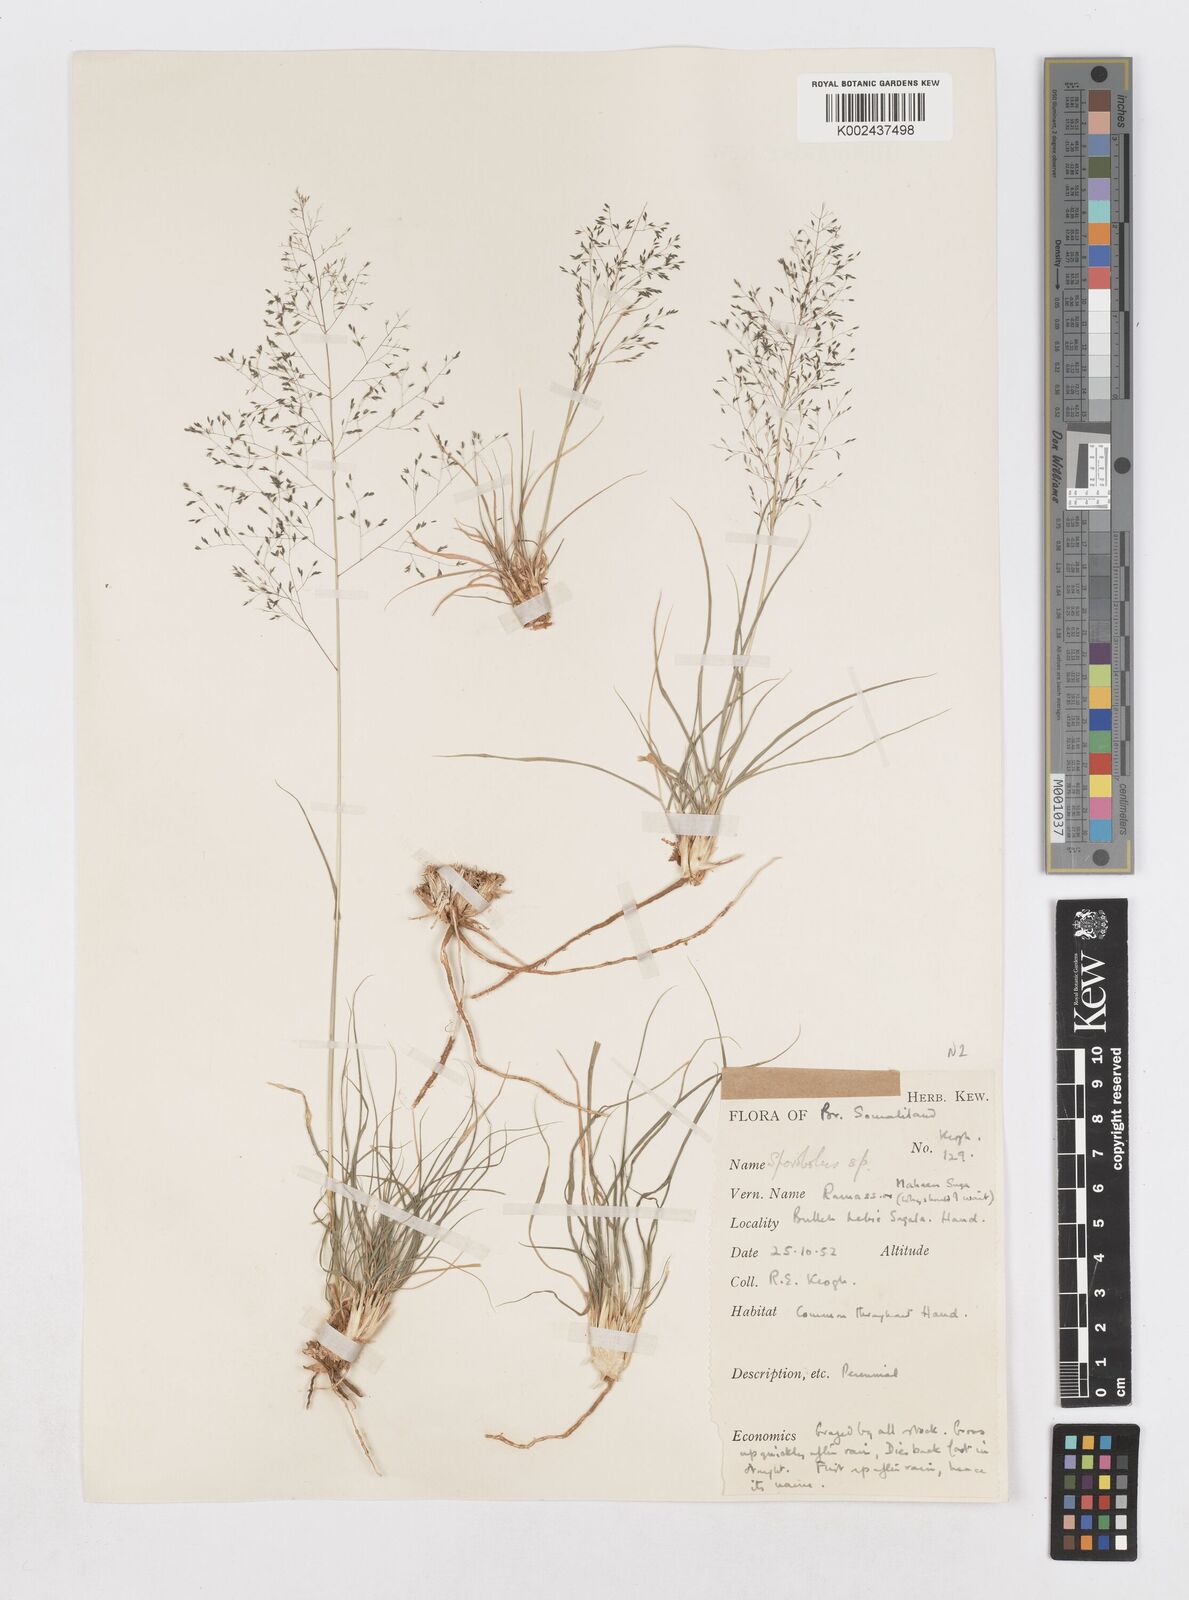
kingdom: Plantae
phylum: Tracheophyta
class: Liliopsida
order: Poales
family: Poaceae
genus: Sporobolus
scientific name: Sporobolus nervosus
